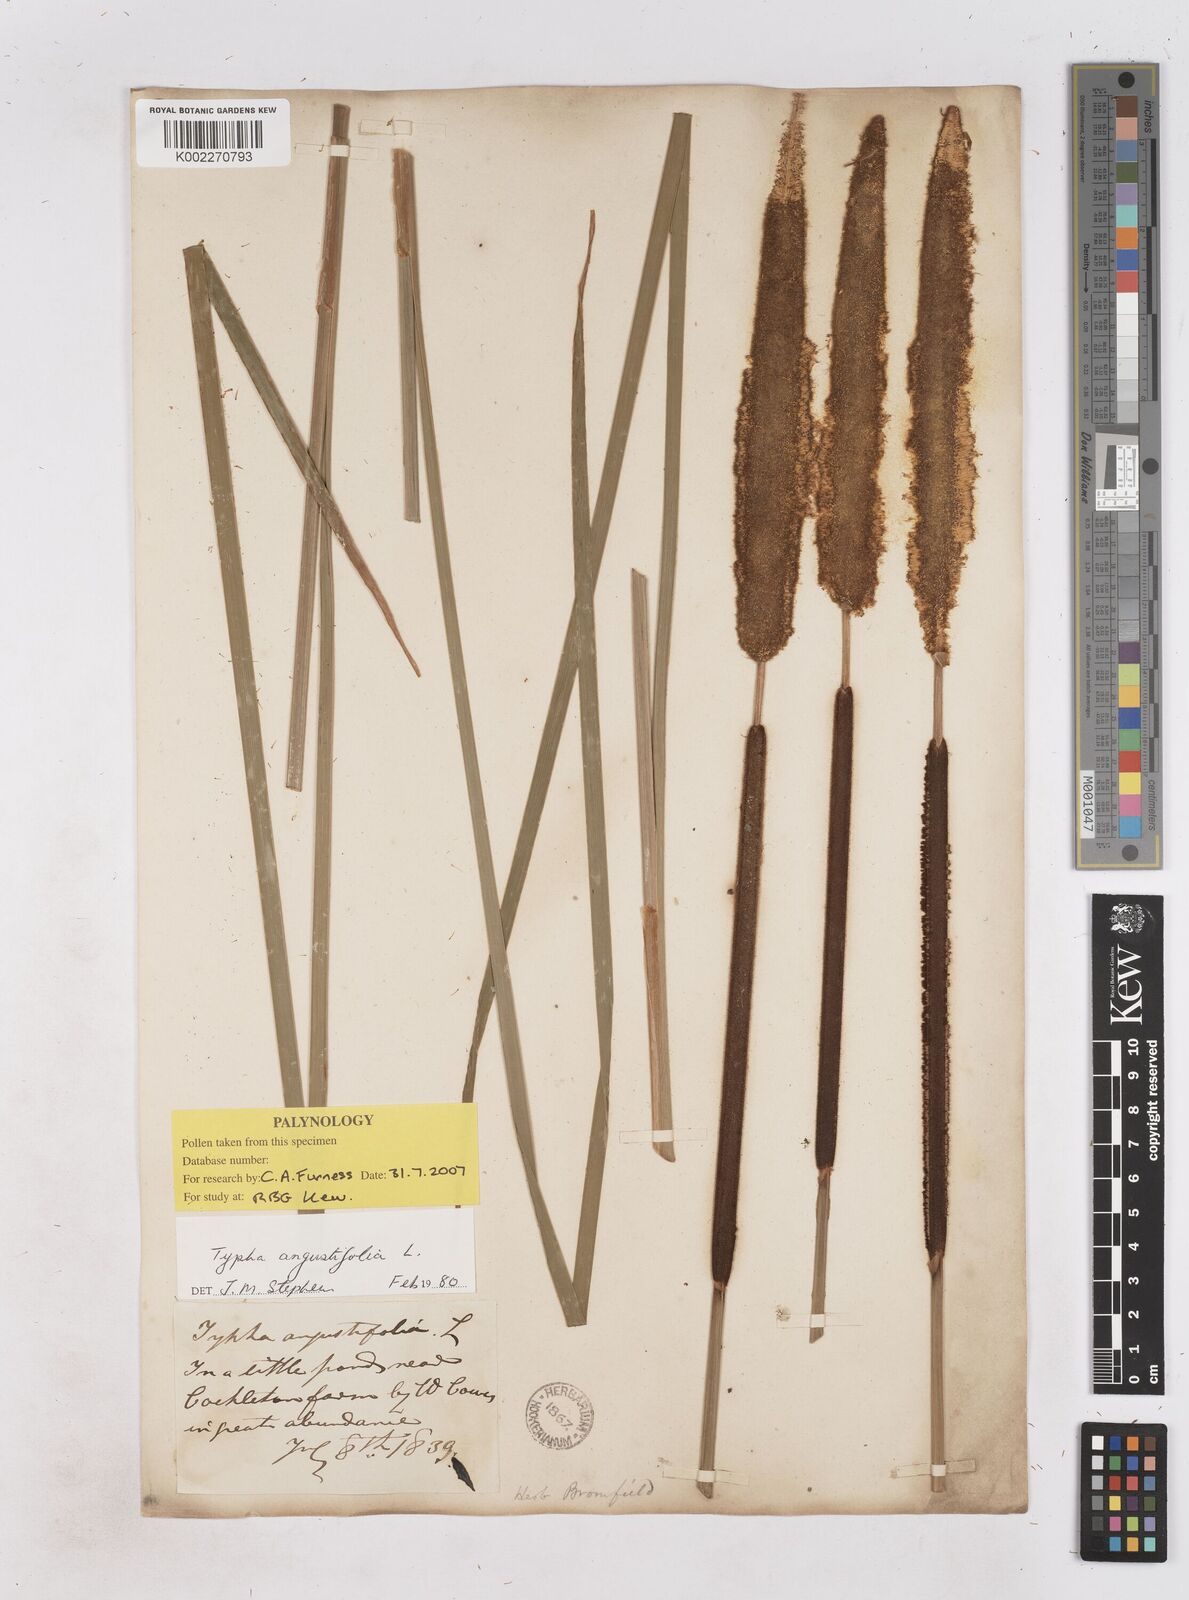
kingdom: Plantae
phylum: Tracheophyta
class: Liliopsida
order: Poales
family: Typhaceae
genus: Typha
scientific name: Typha angustifolia
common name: Lesser bulrush
